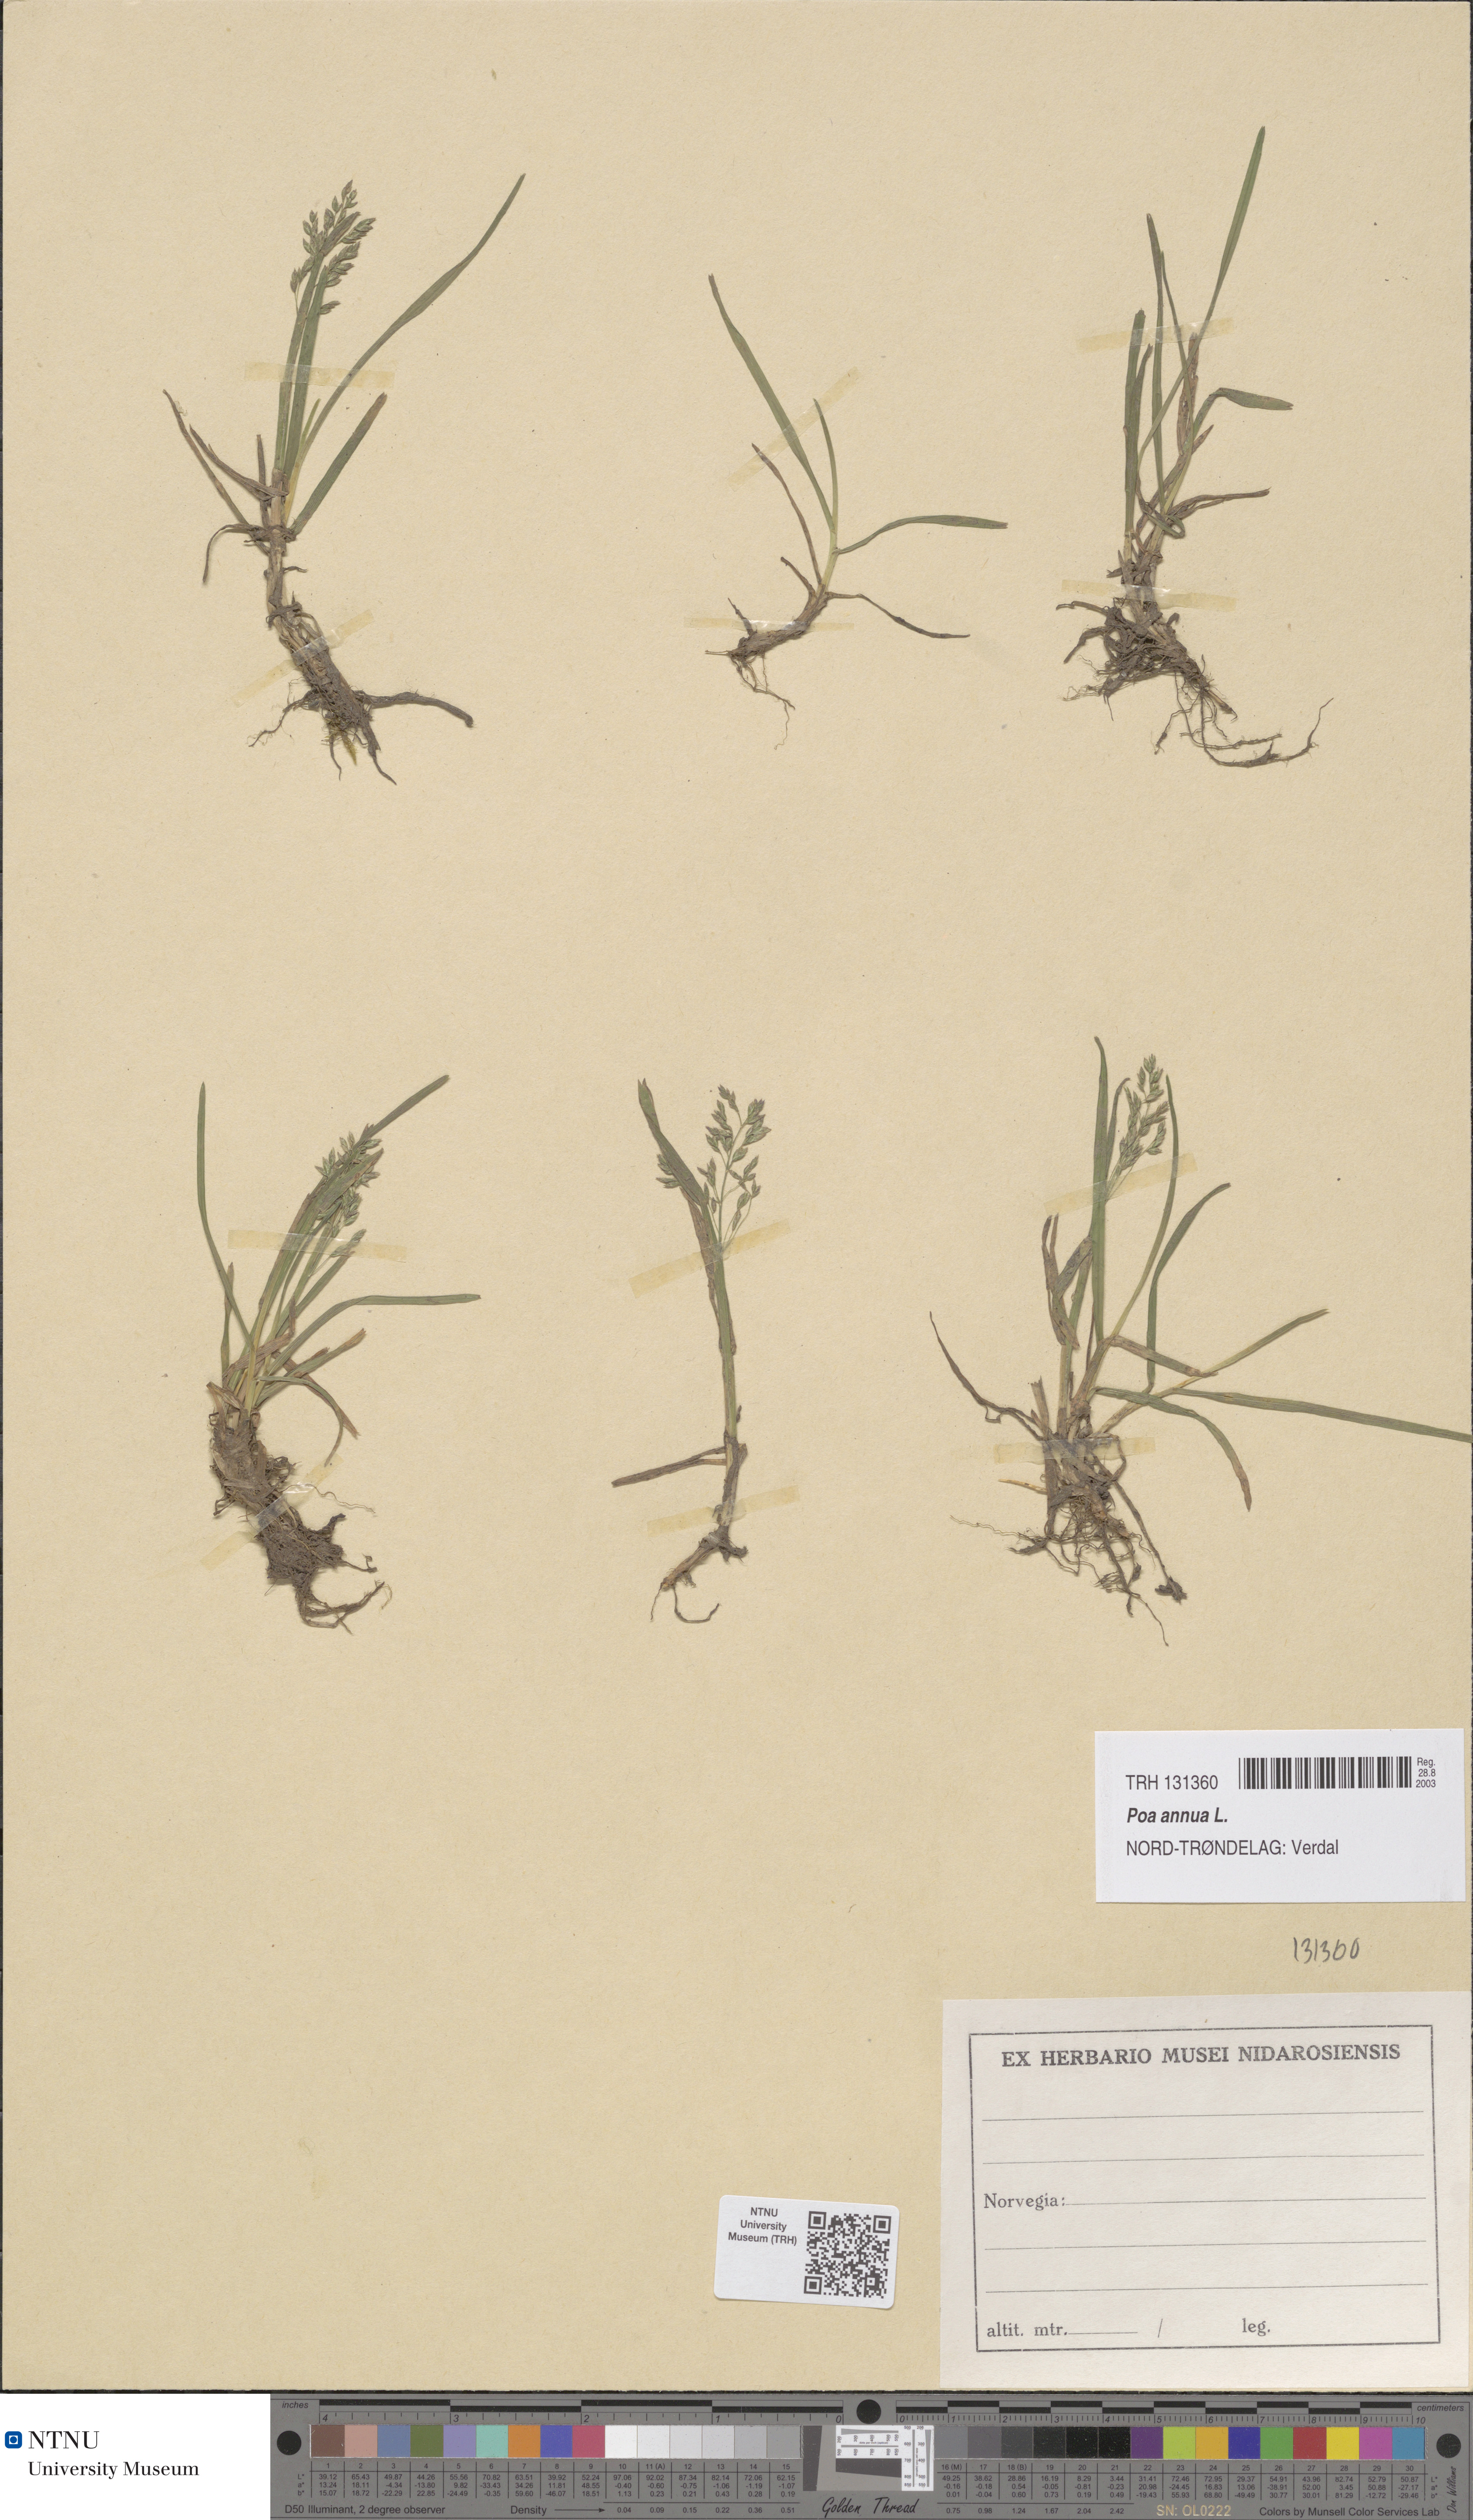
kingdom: Plantae
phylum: Tracheophyta
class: Liliopsida
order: Poales
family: Poaceae
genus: Poa
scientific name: Poa annua
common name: Annual bluegrass
